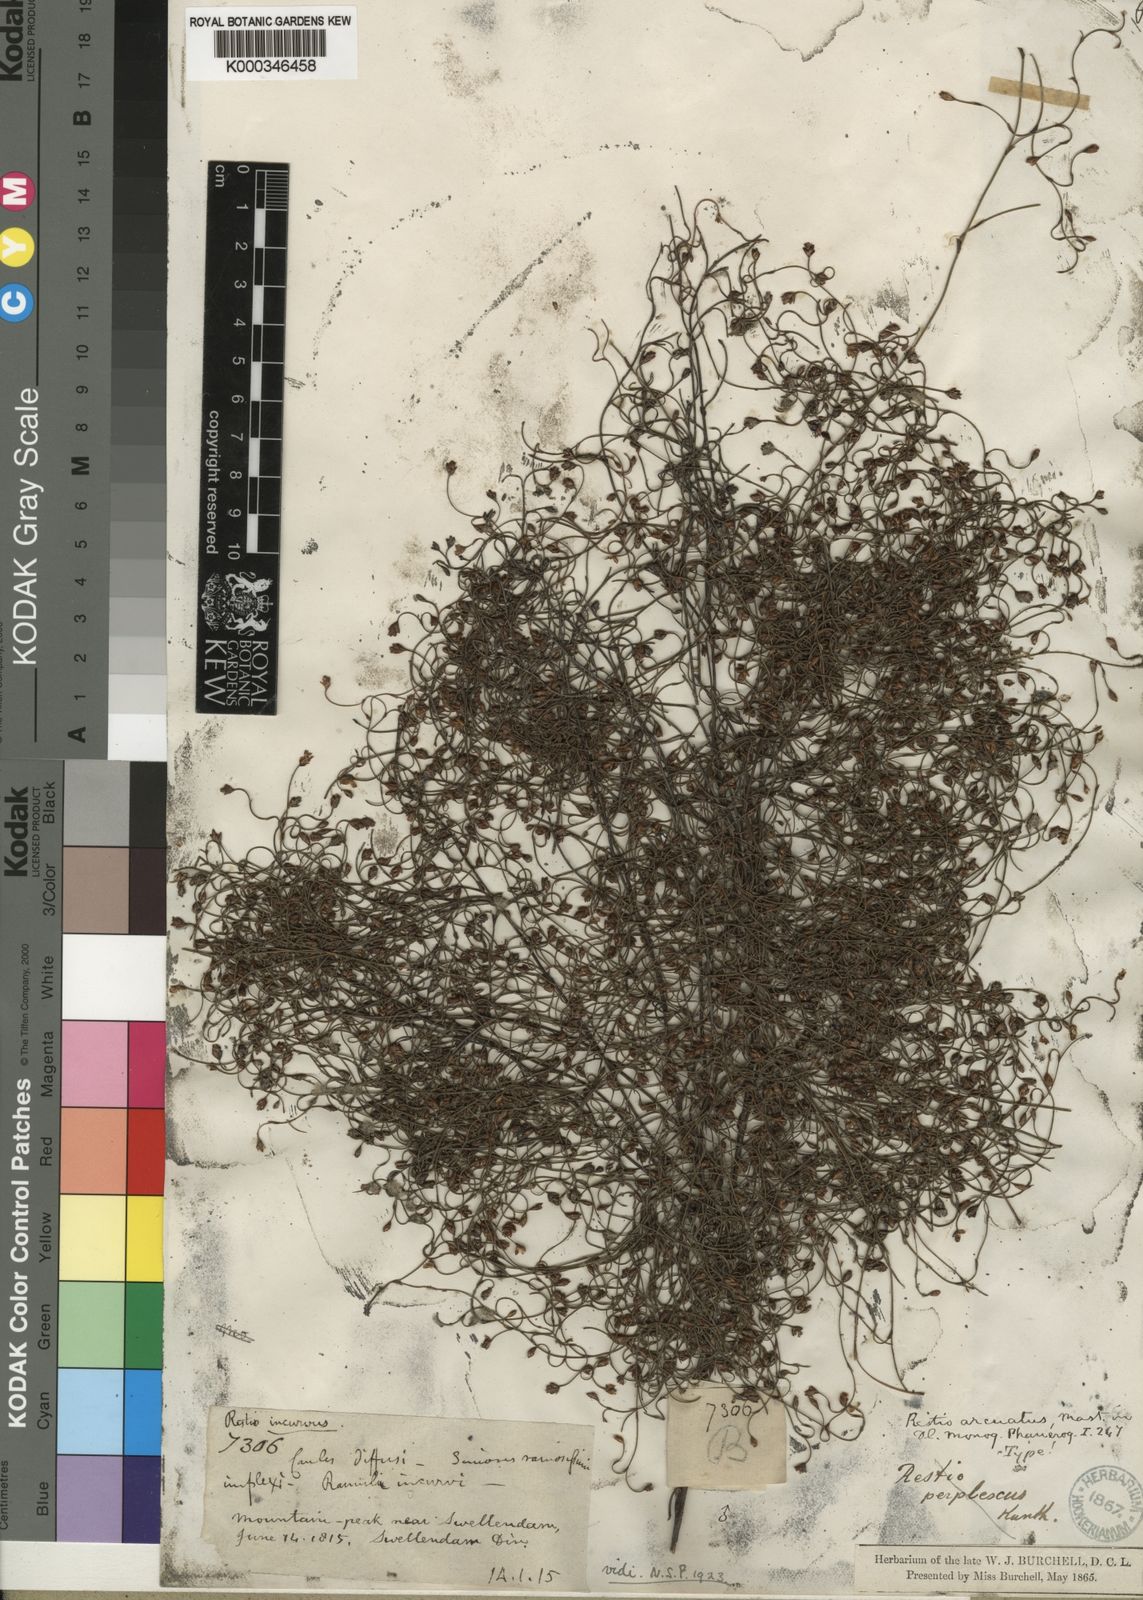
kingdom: Plantae
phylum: Tracheophyta
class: Liliopsida
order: Poales
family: Restionaceae
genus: Restio
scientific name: Restio arcuatus
